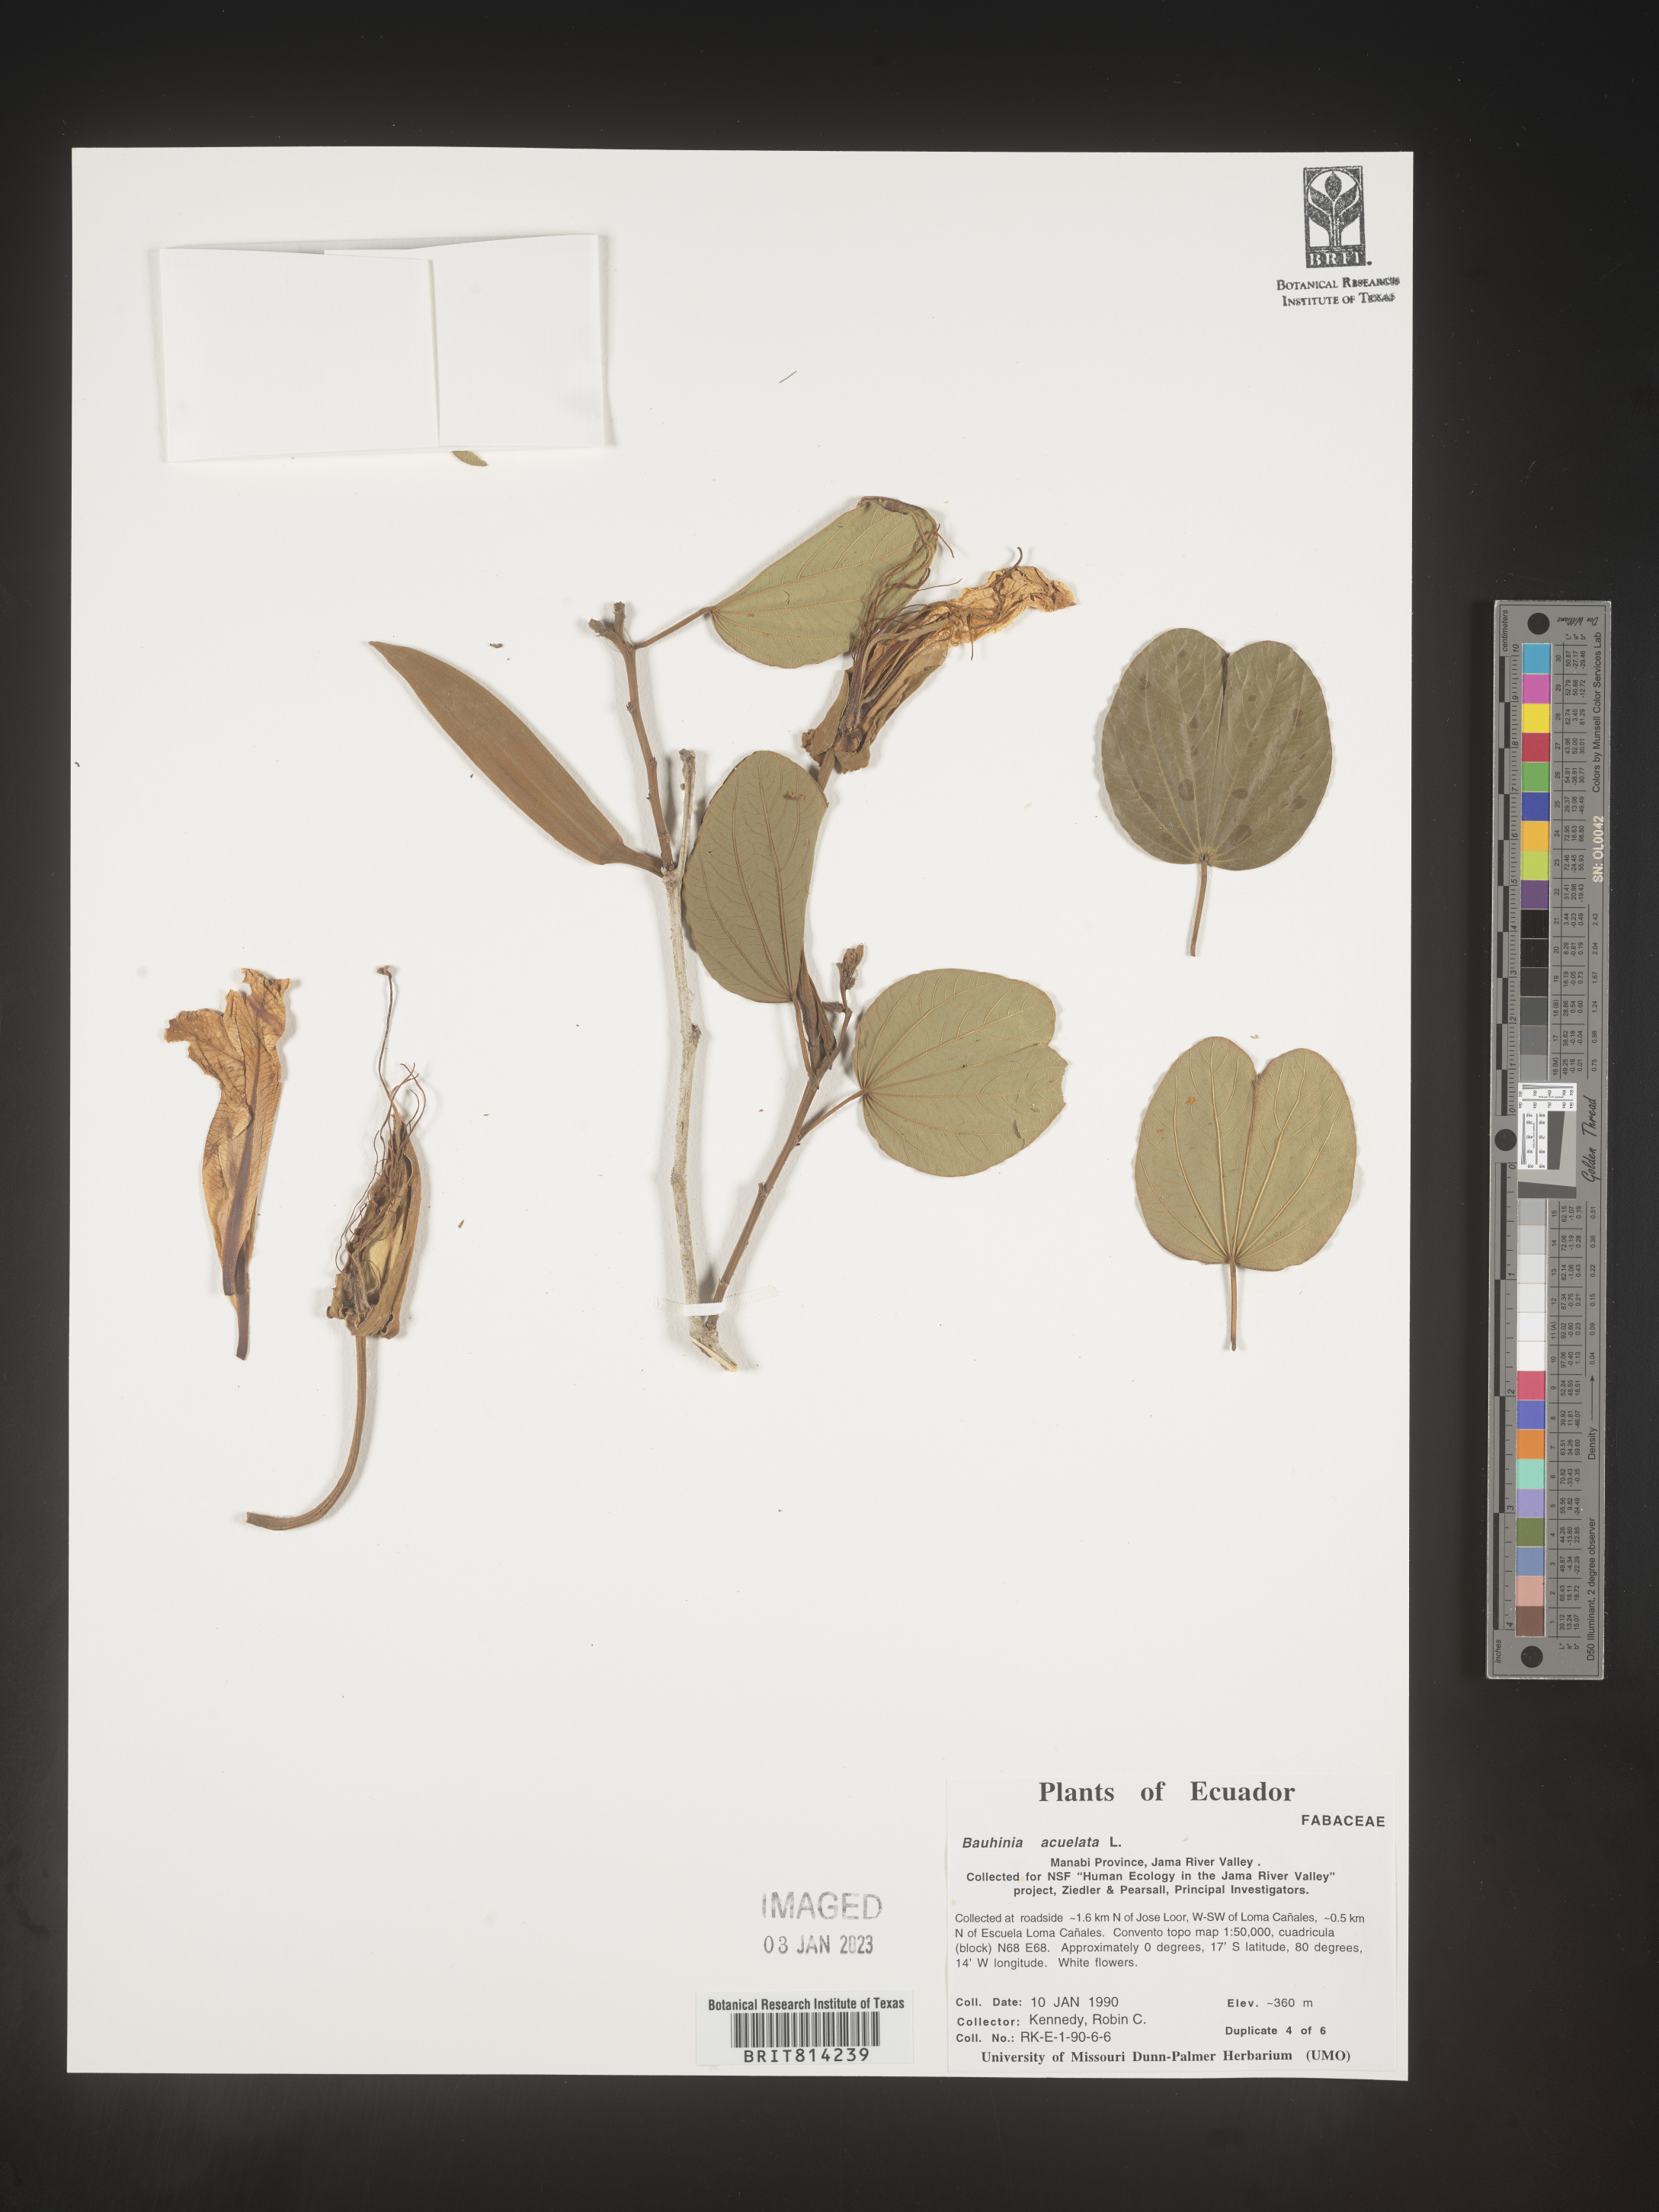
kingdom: Plantae
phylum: Tracheophyta
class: Magnoliopsida
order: Fabales
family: Fabaceae
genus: Bauhinia
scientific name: Bauhinia
